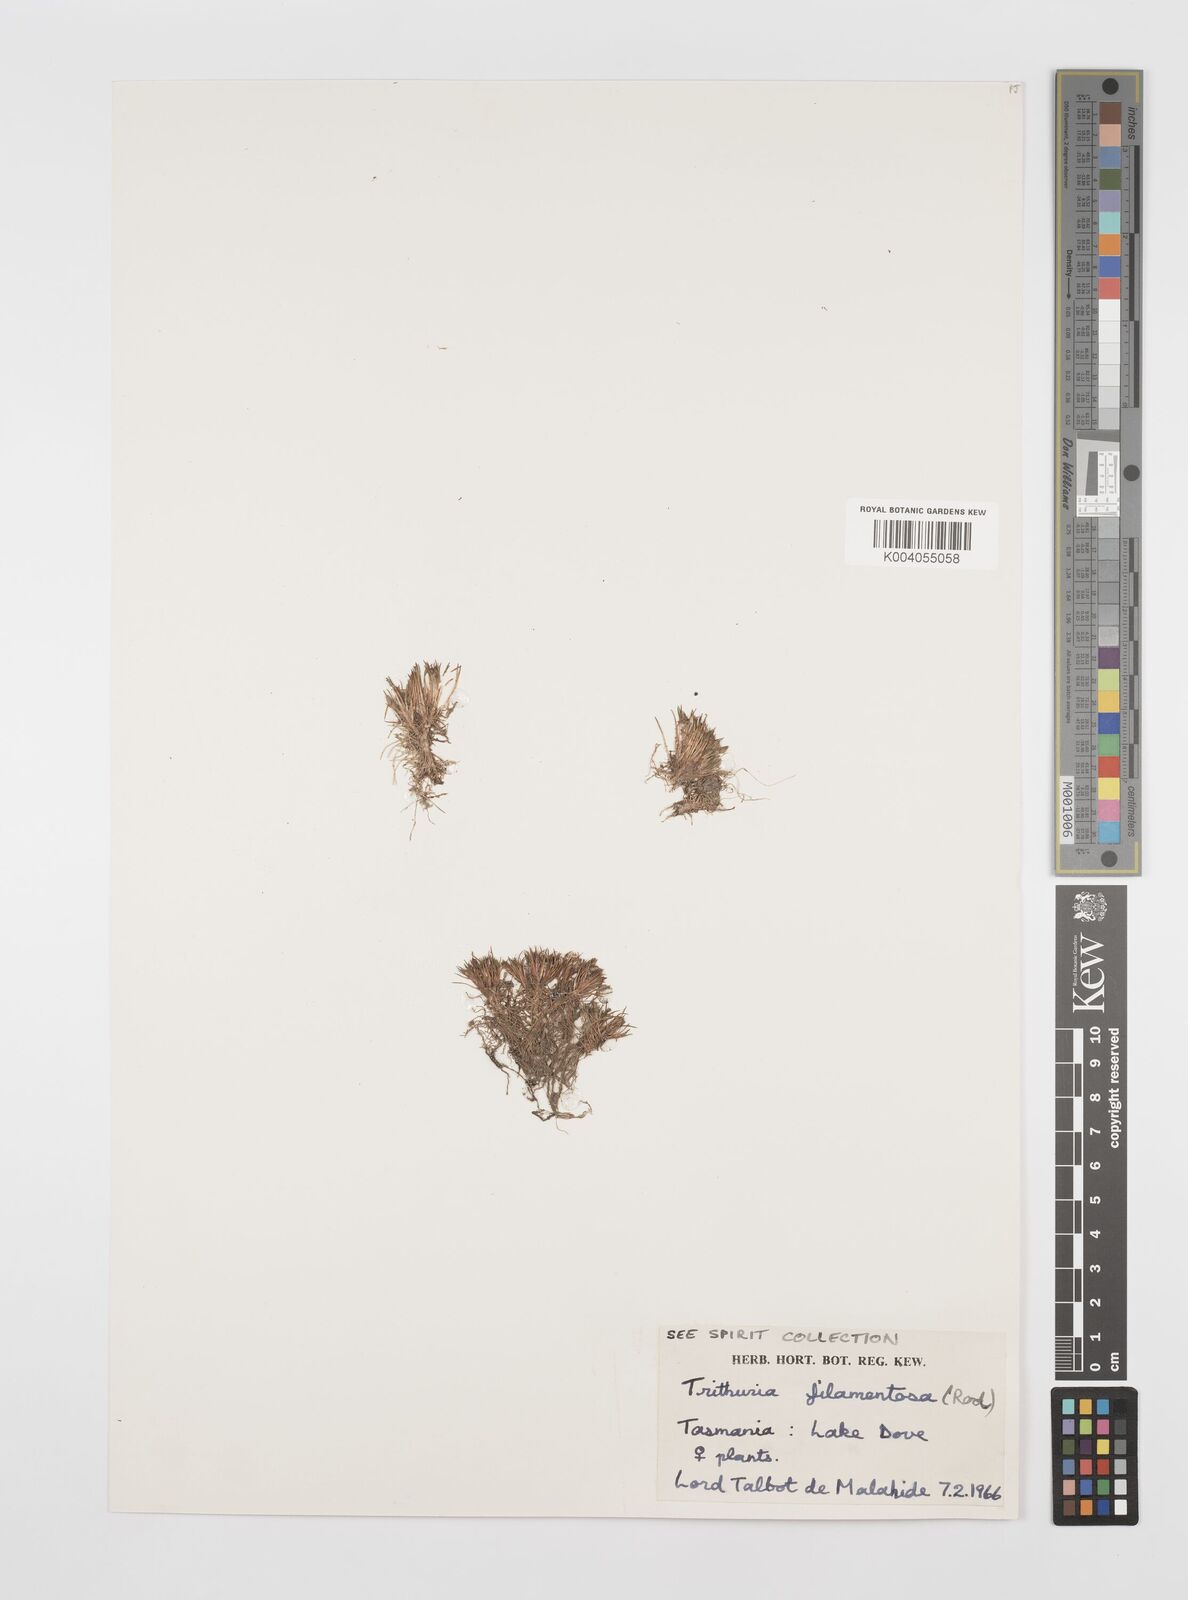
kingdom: Plantae
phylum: Tracheophyta
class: Magnoliopsida
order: Nymphaeales
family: Hydatellaceae
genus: Trithuria
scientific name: Trithuria filamentosa
